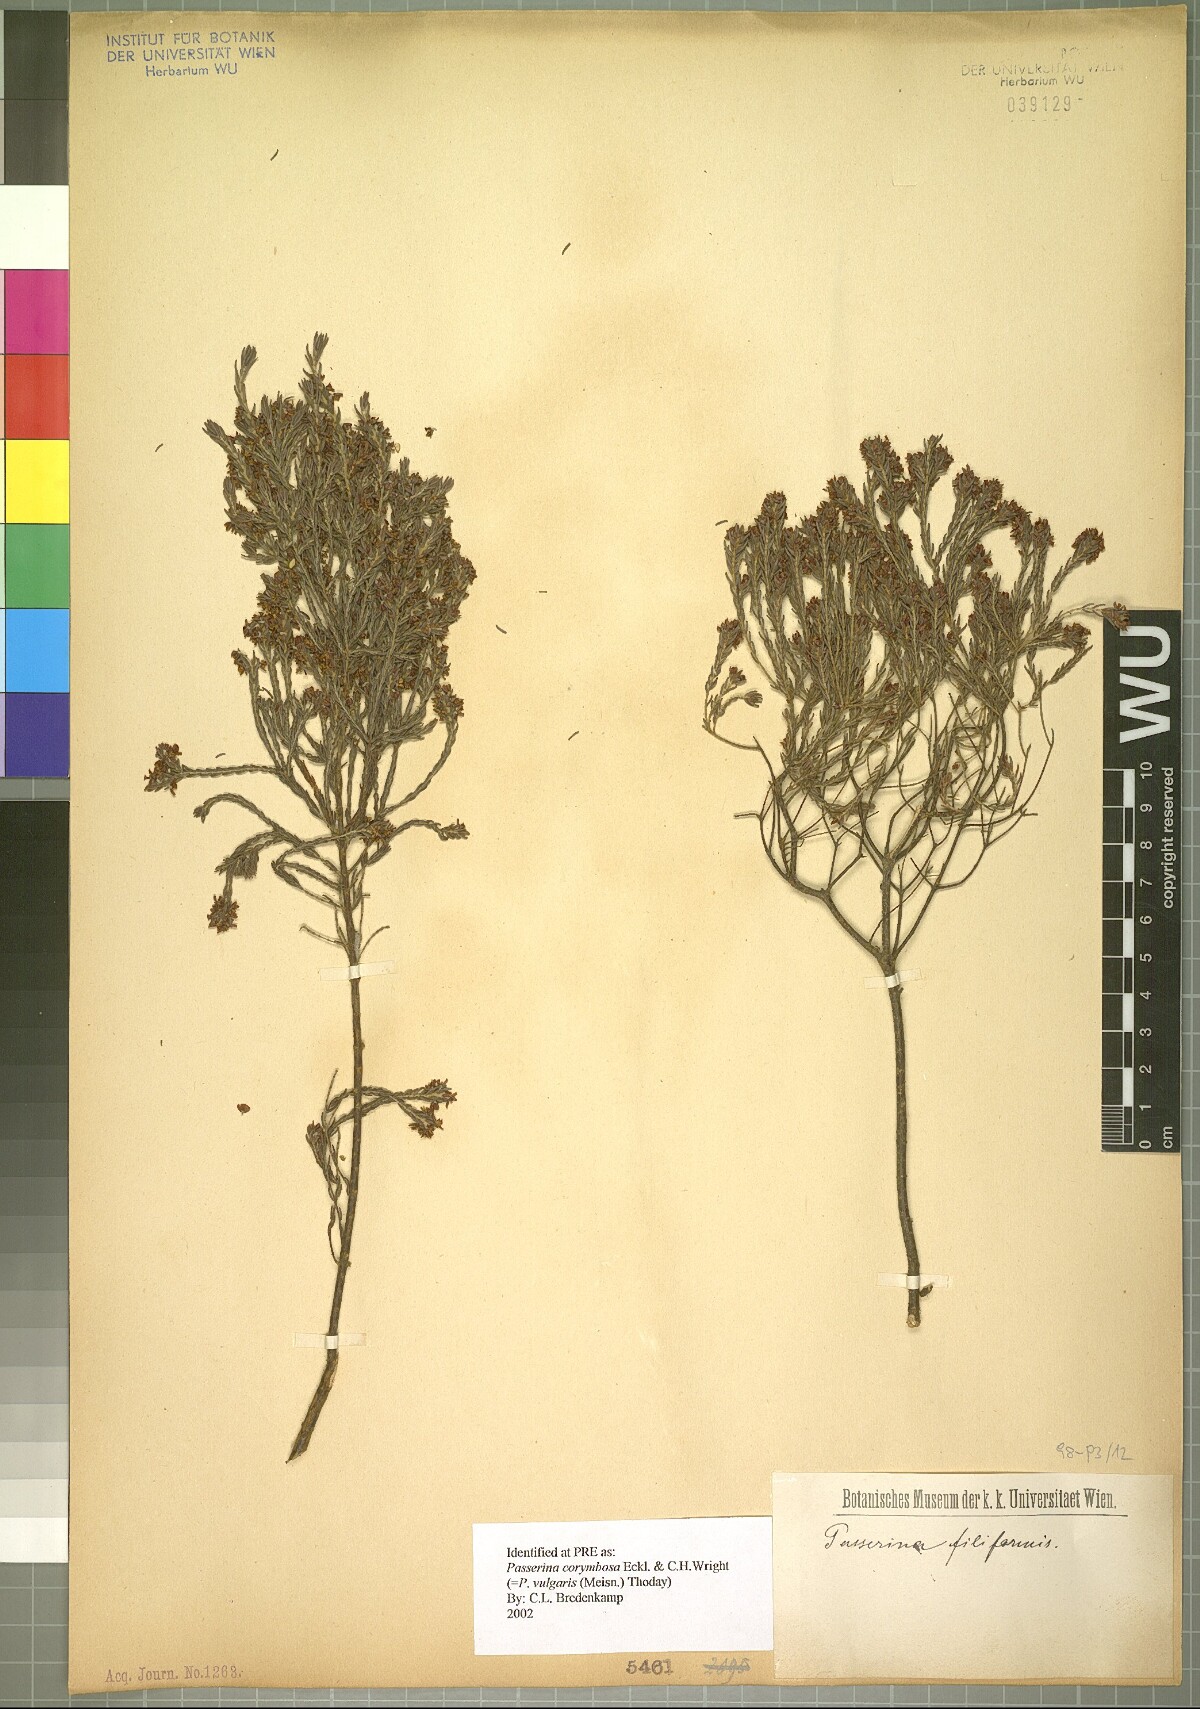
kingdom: Plantae
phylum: Tracheophyta
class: Magnoliopsida
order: Malvales
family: Thymelaeaceae
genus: Passerina
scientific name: Passerina corymbosa
